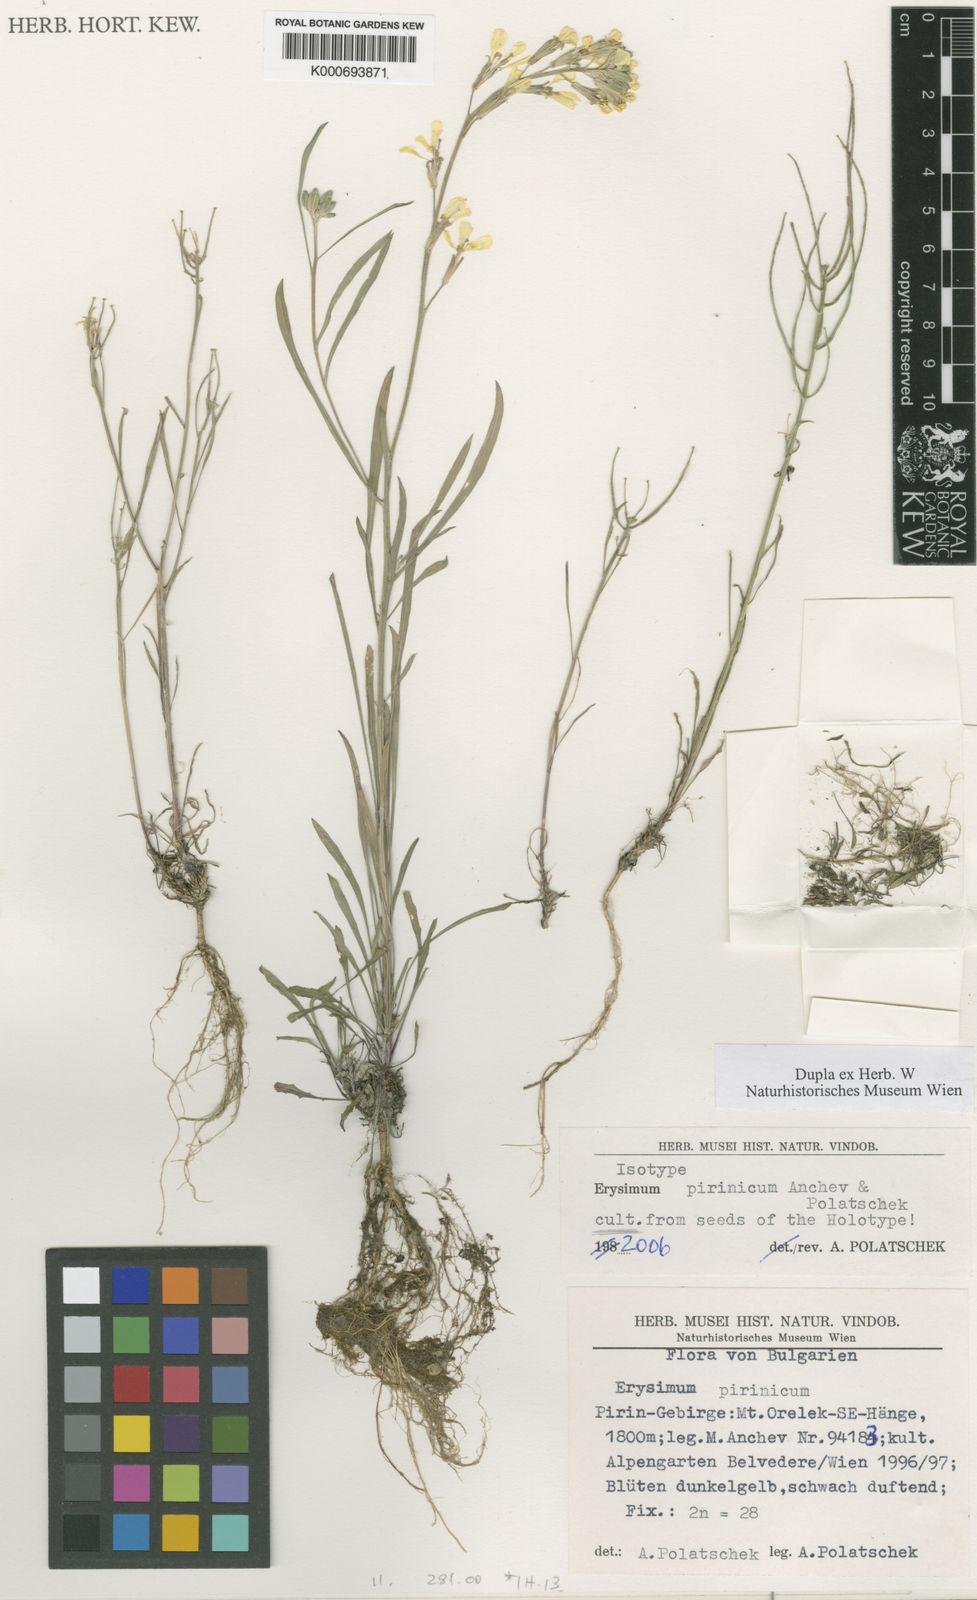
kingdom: Plantae
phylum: Tracheophyta
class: Magnoliopsida
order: Brassicales
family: Brassicaceae
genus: Erysimum
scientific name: Erysimum
